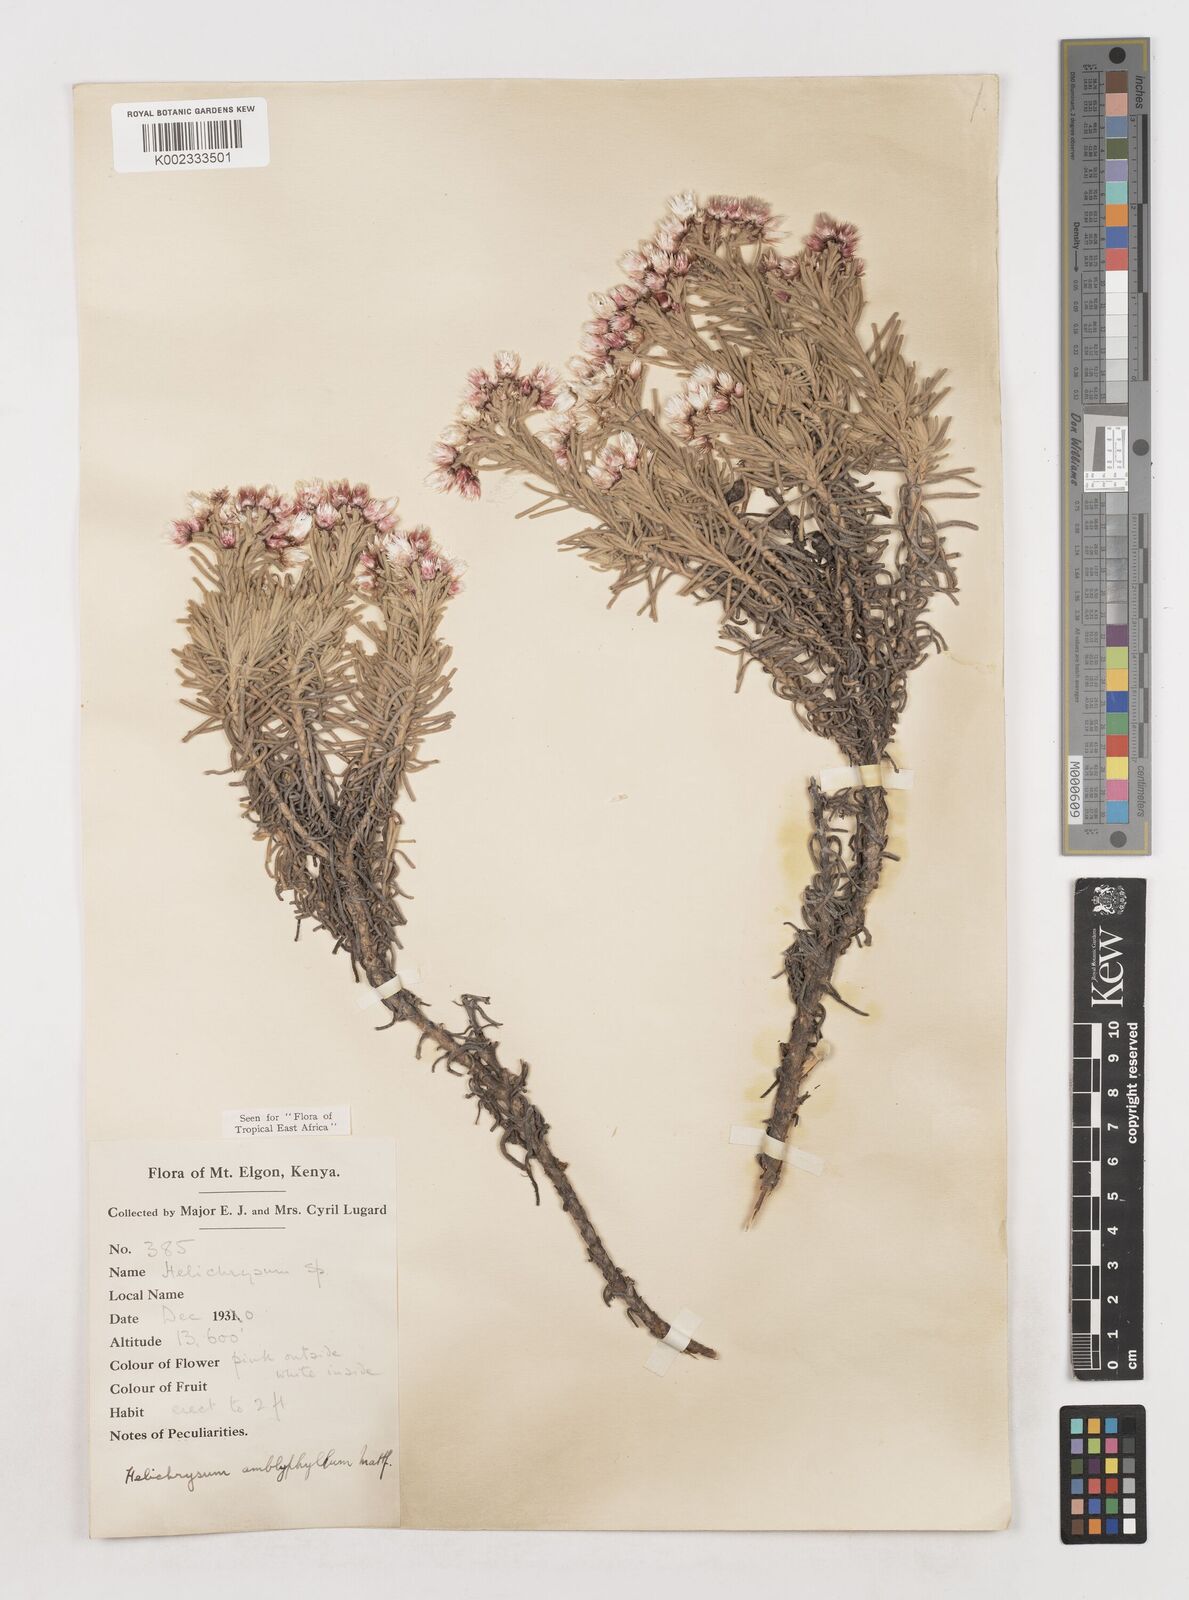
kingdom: Plantae
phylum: Tracheophyta
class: Magnoliopsida
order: Asterales
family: Asteraceae
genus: Helichrysum
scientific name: Helichrysum amblyphyllum
